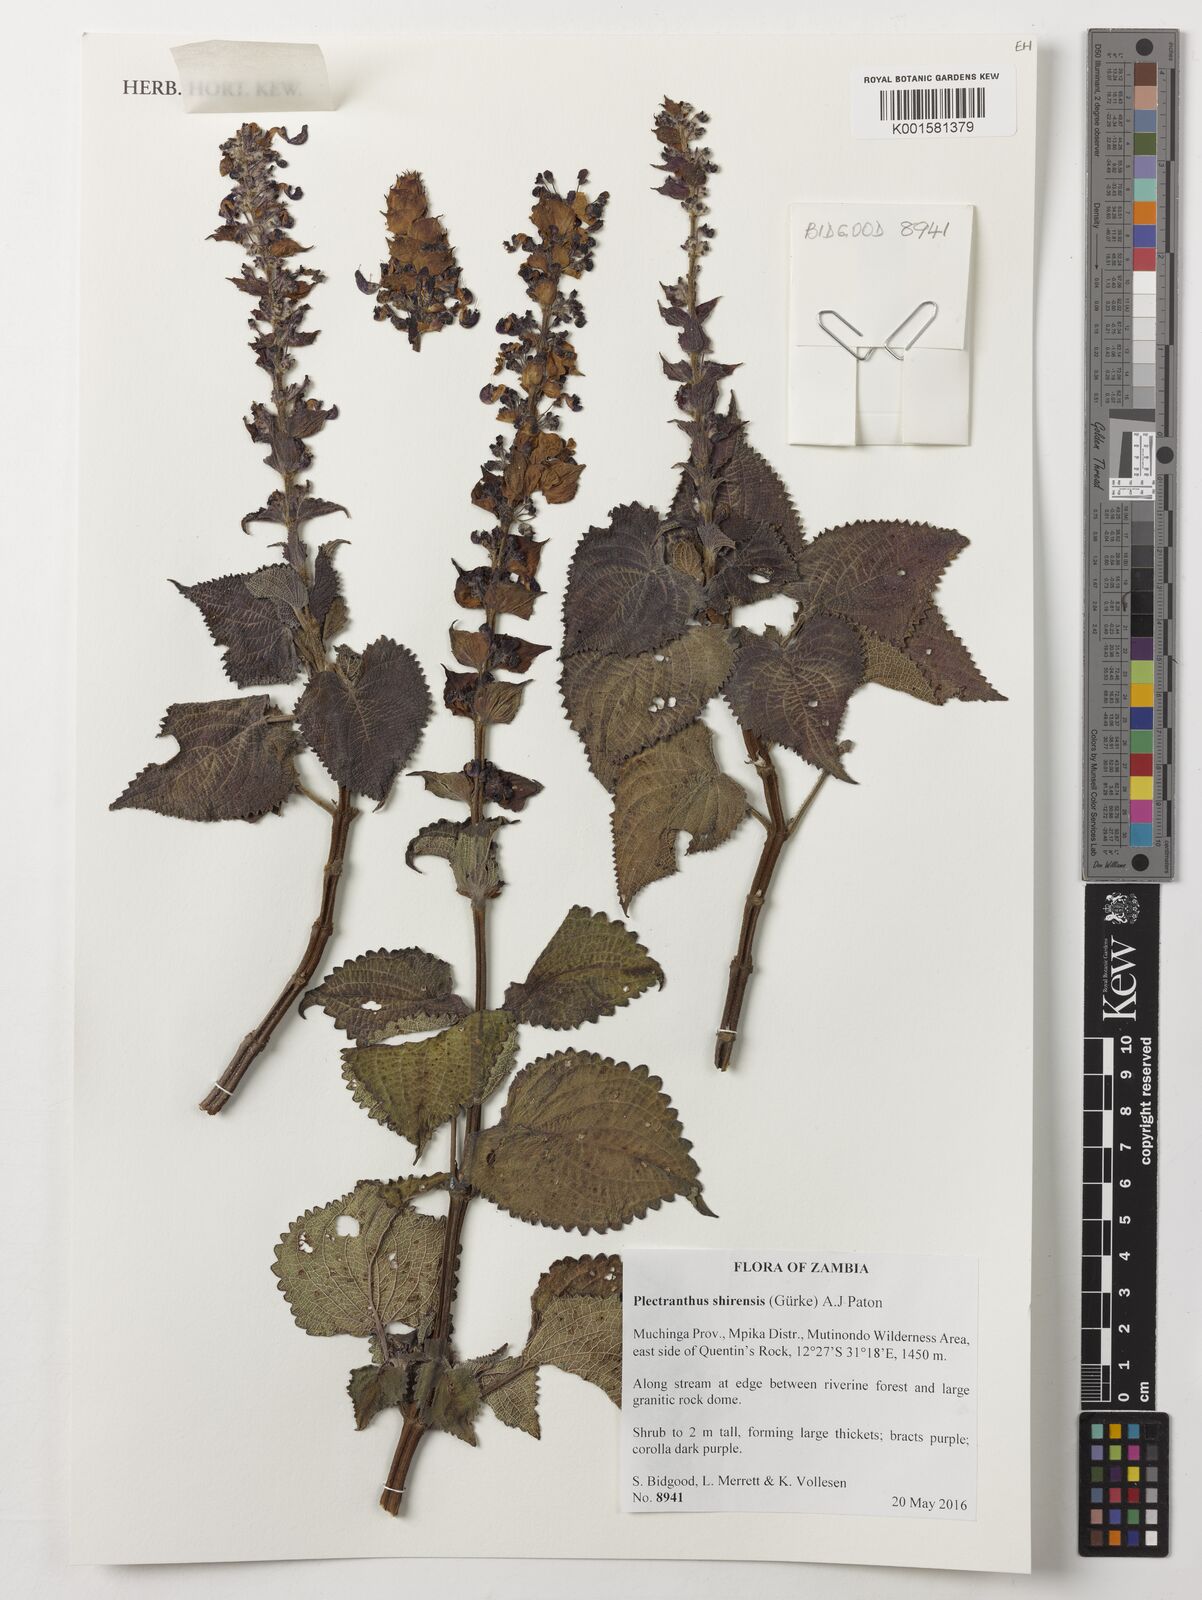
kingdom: Plantae
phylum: Tracheophyta
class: Magnoliopsida
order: Lamiales
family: Lamiaceae
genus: Coleus
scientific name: Coleus shirensis
